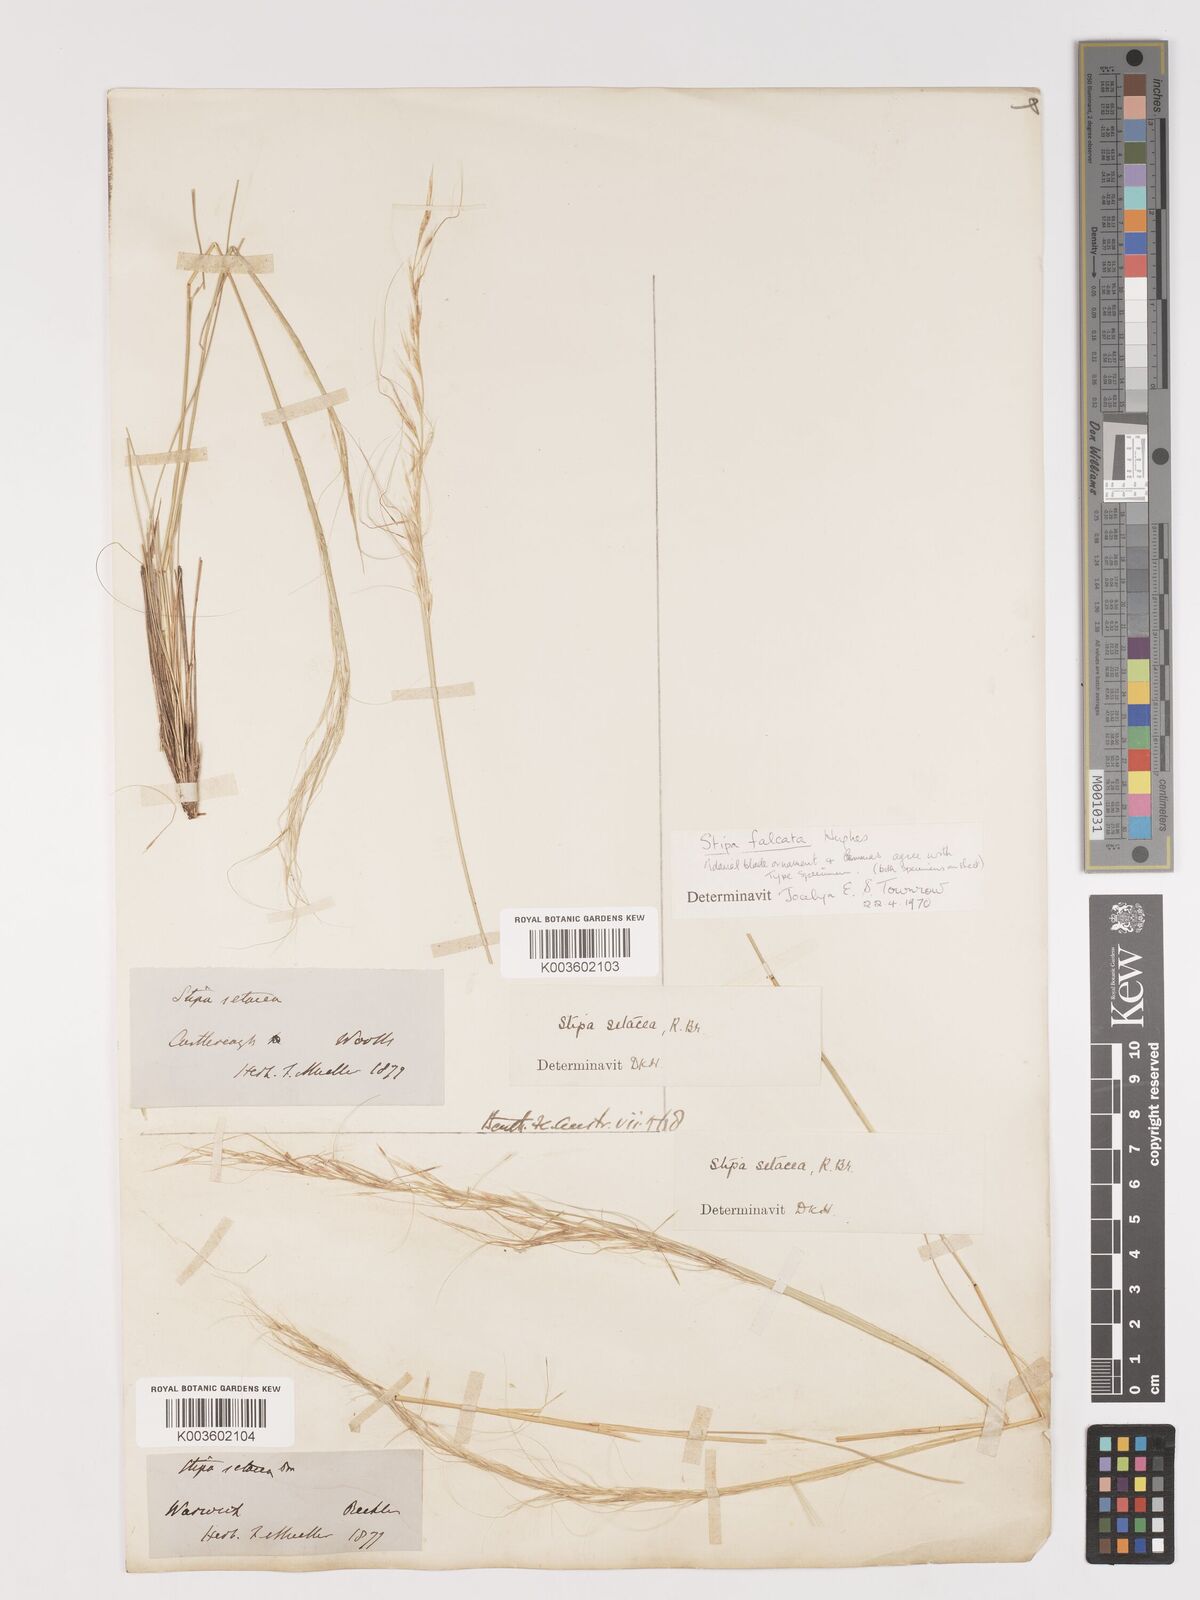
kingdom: Plantae
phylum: Tracheophyta
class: Liliopsida
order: Poales
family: Poaceae
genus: Austrostipa
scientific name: Austrostipa scabra
